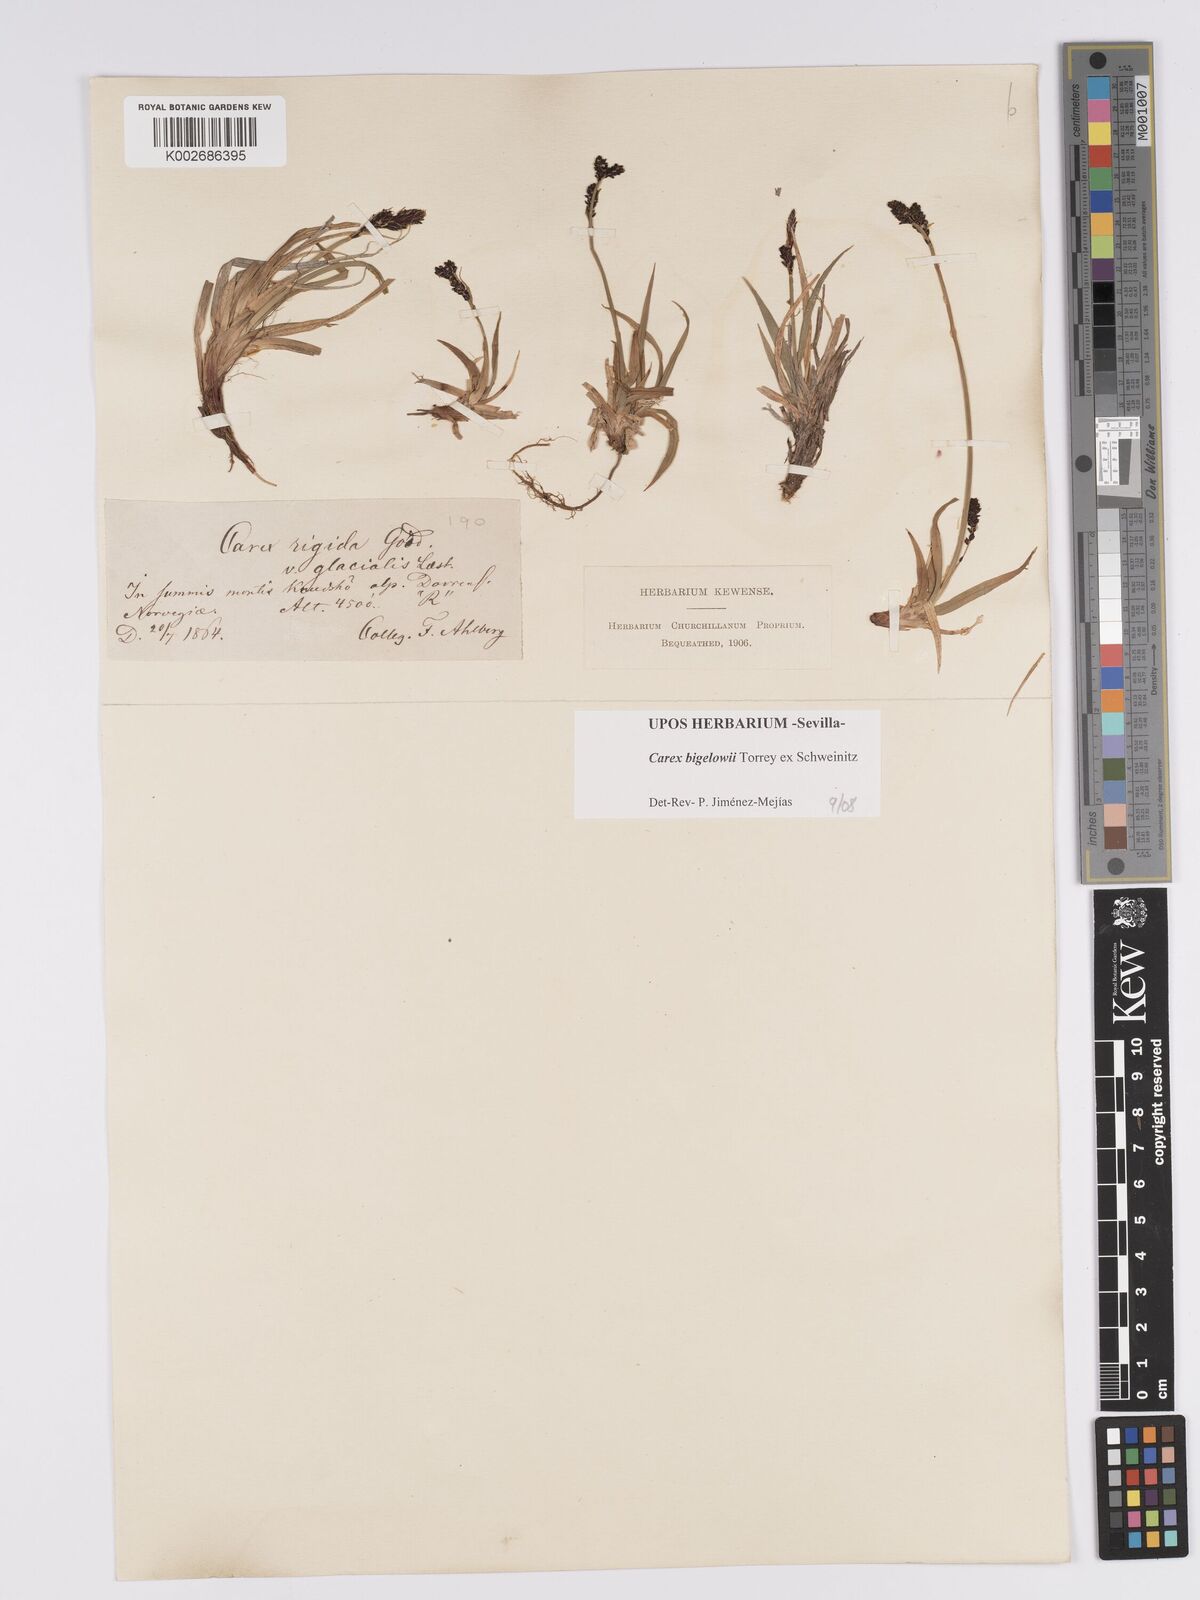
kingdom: Plantae
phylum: Tracheophyta
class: Liliopsida
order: Poales
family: Cyperaceae
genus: Carex
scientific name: Carex bigelowii
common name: Stiff sedge
